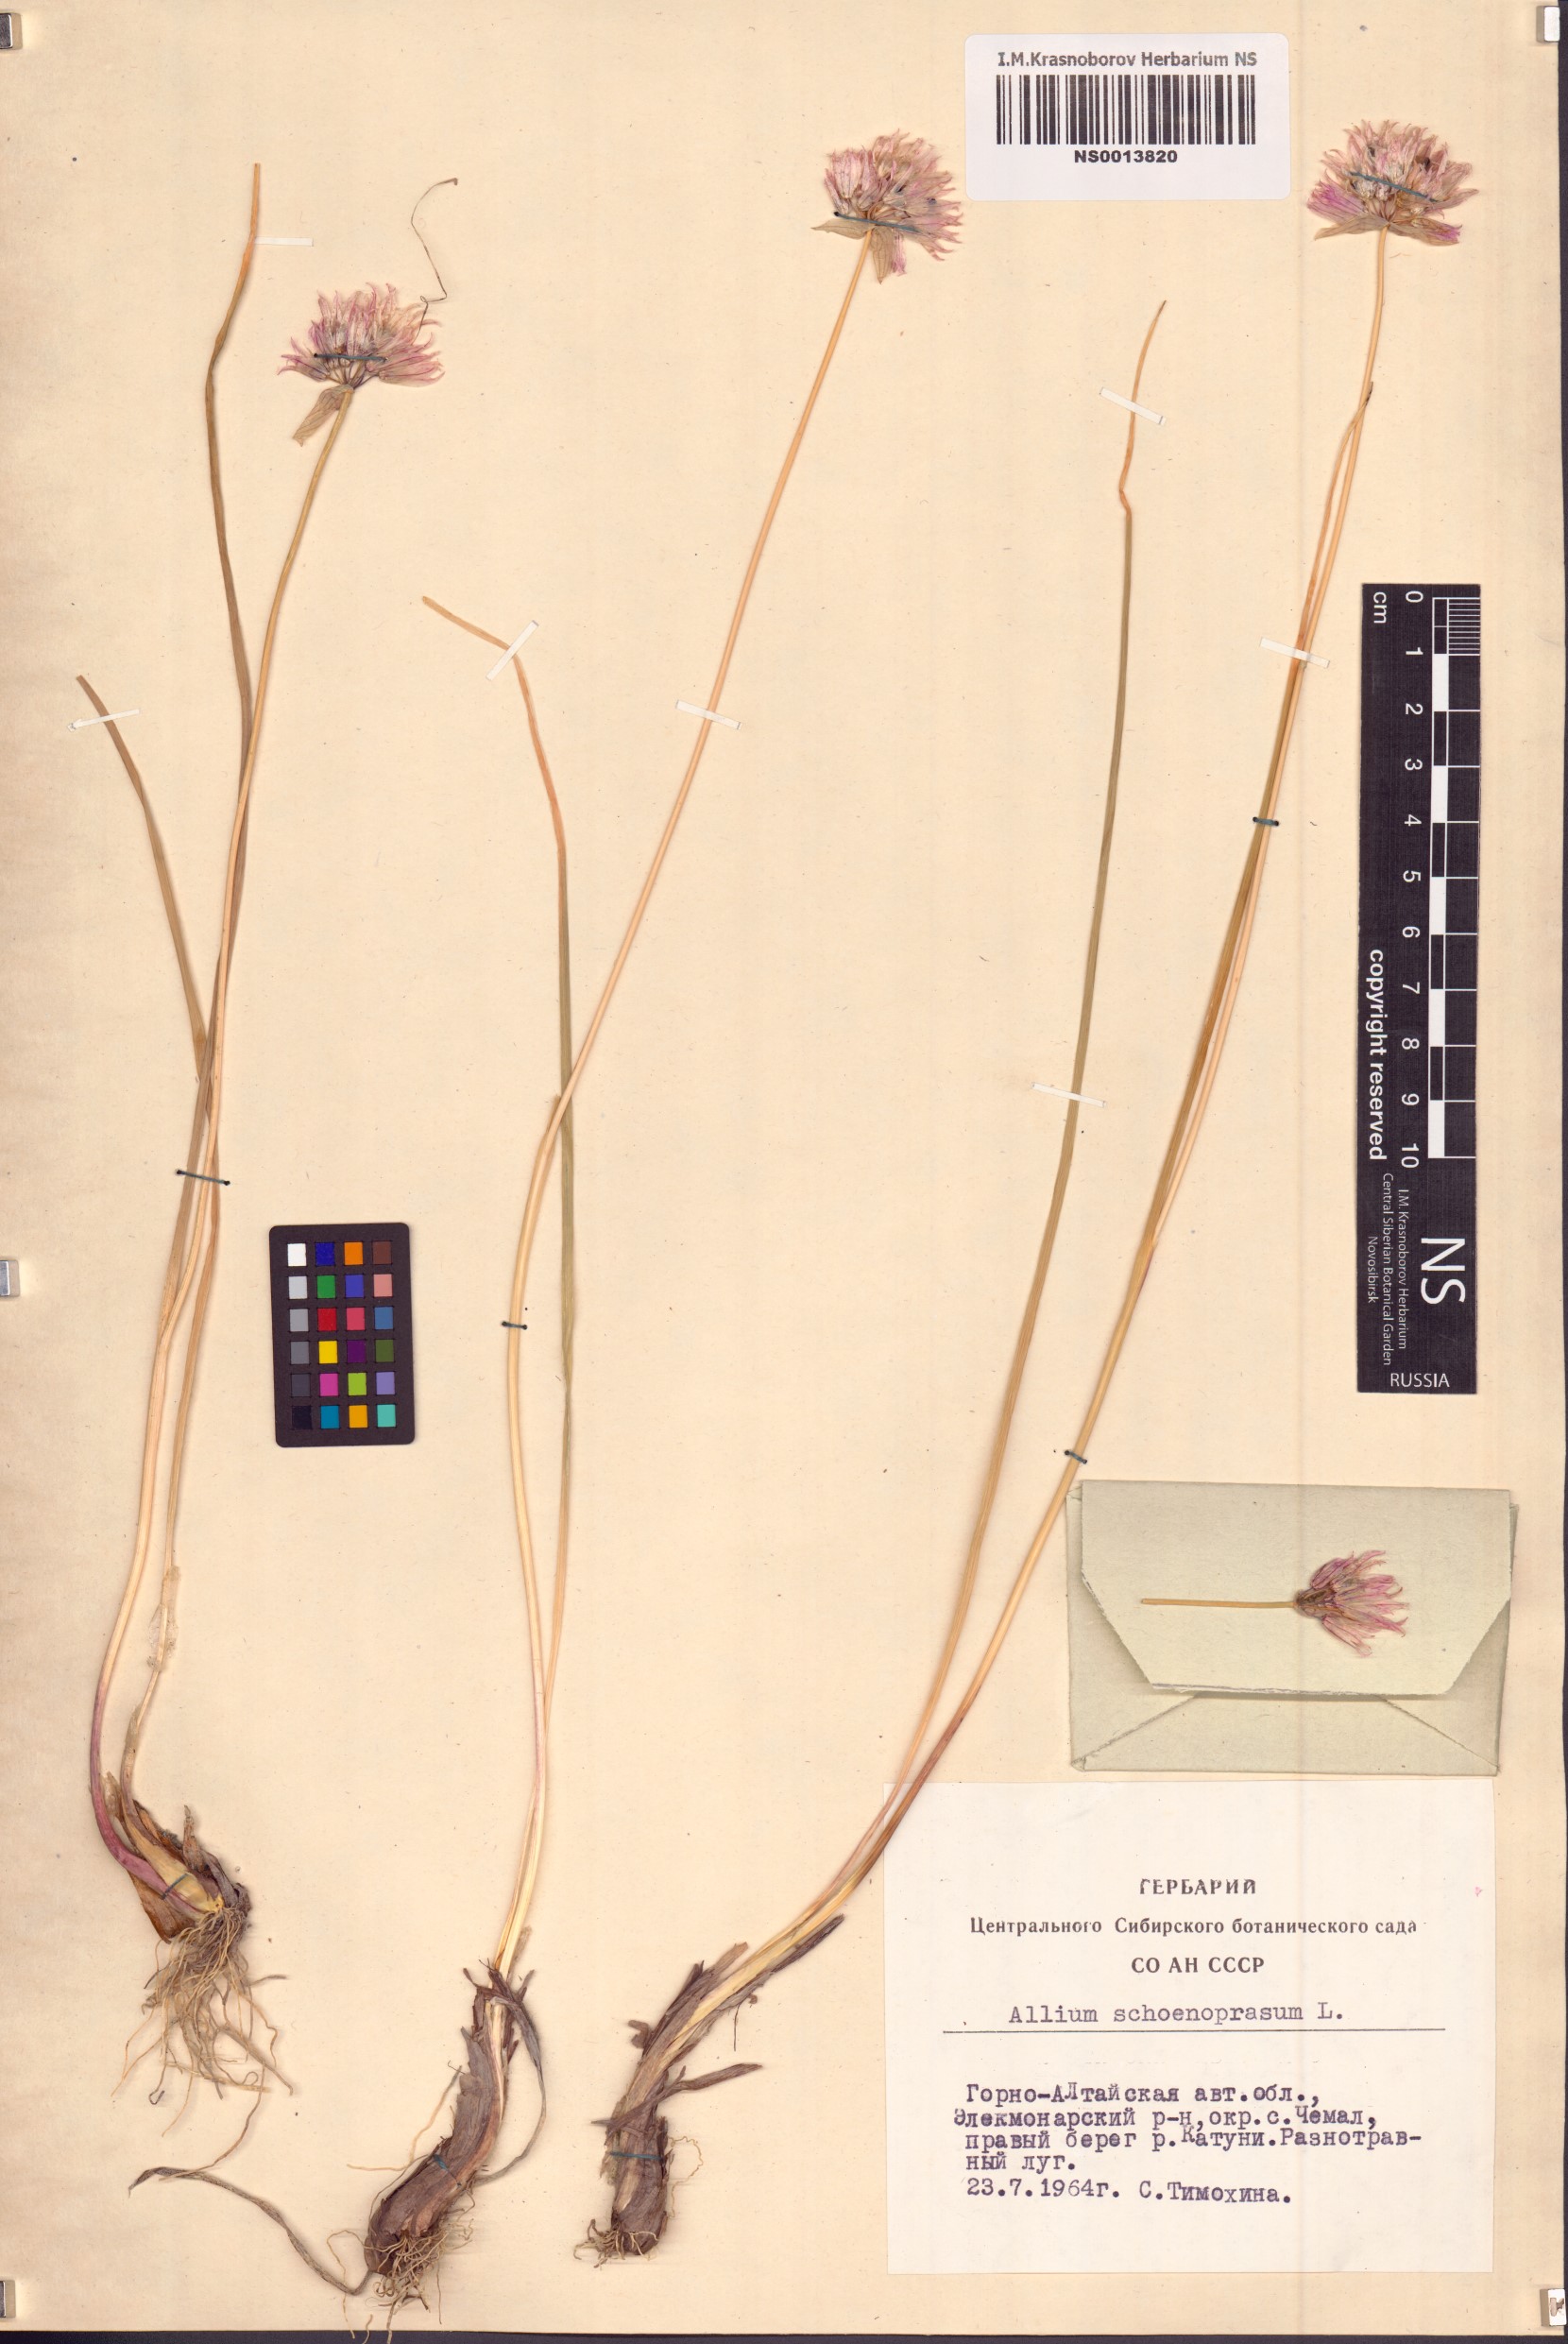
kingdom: Plantae
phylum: Tracheophyta
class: Liliopsida
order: Asparagales
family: Amaryllidaceae
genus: Allium
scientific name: Allium schoenoprasum
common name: Chives
